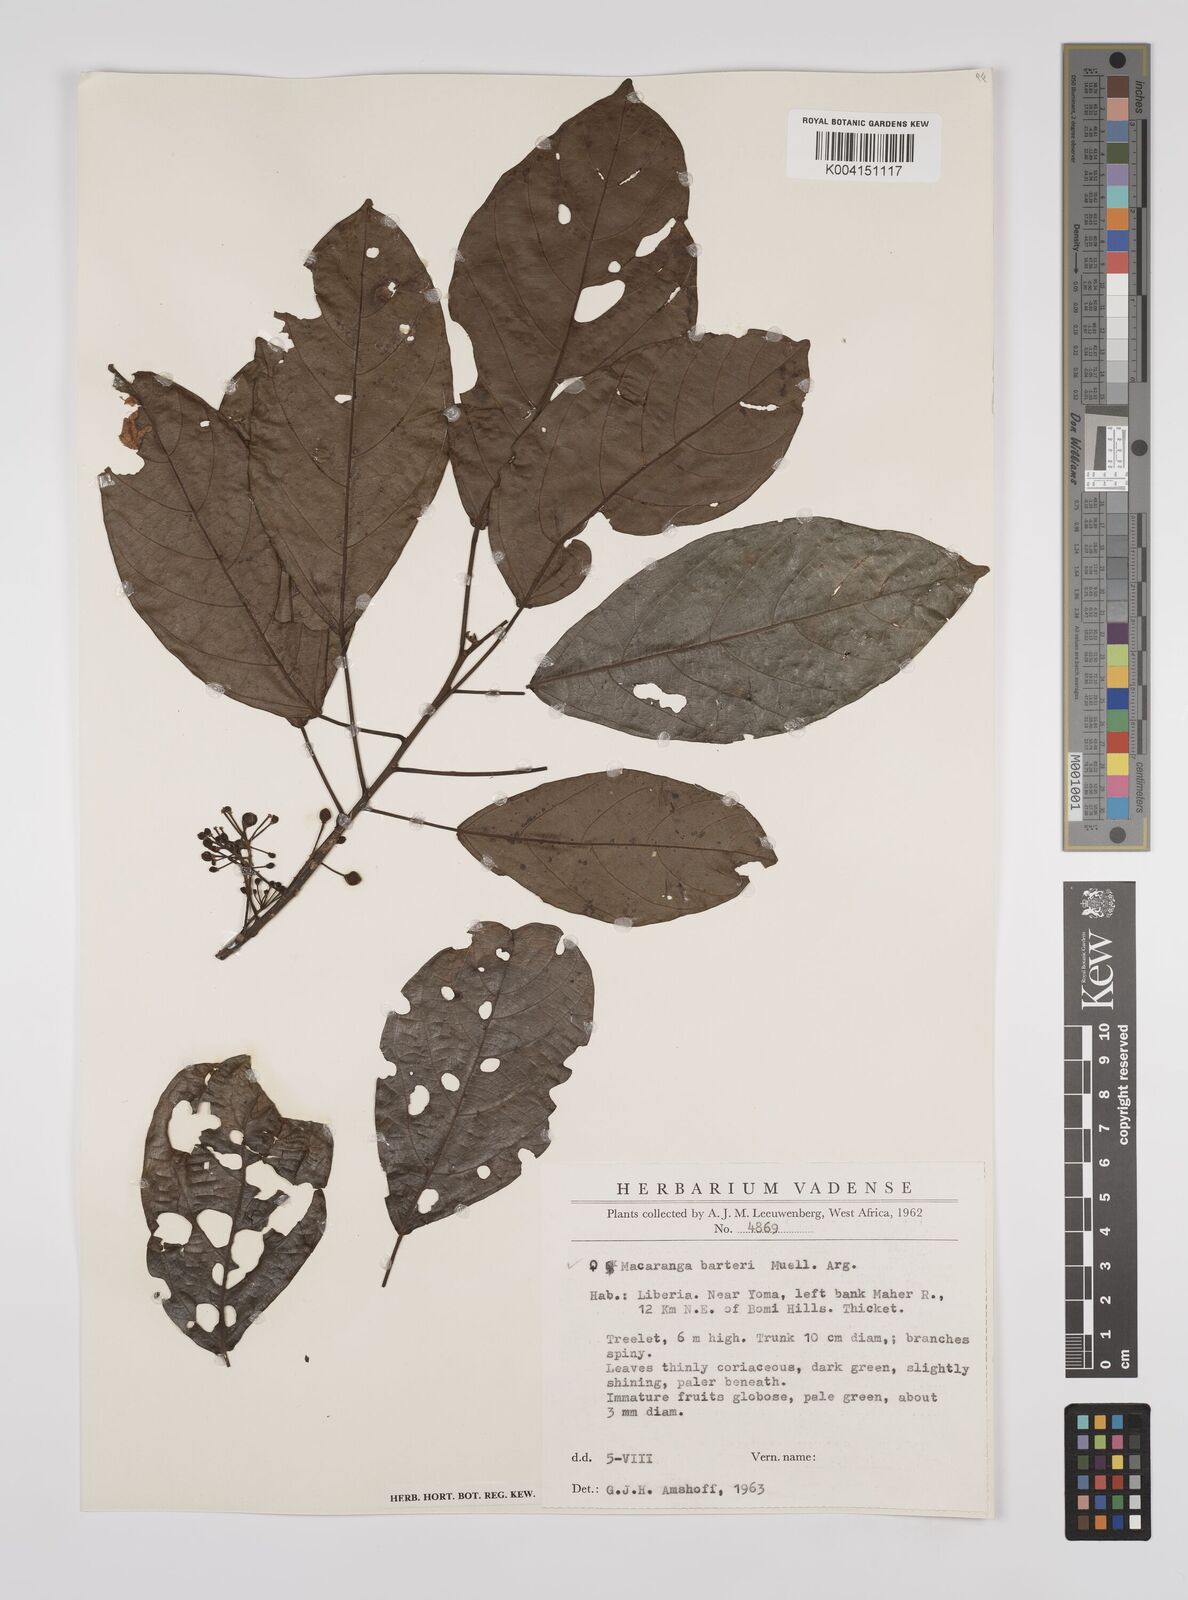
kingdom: Plantae
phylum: Tracheophyta
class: Magnoliopsida
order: Malpighiales
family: Euphorbiaceae
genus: Macaranga
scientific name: Macaranga barteri
